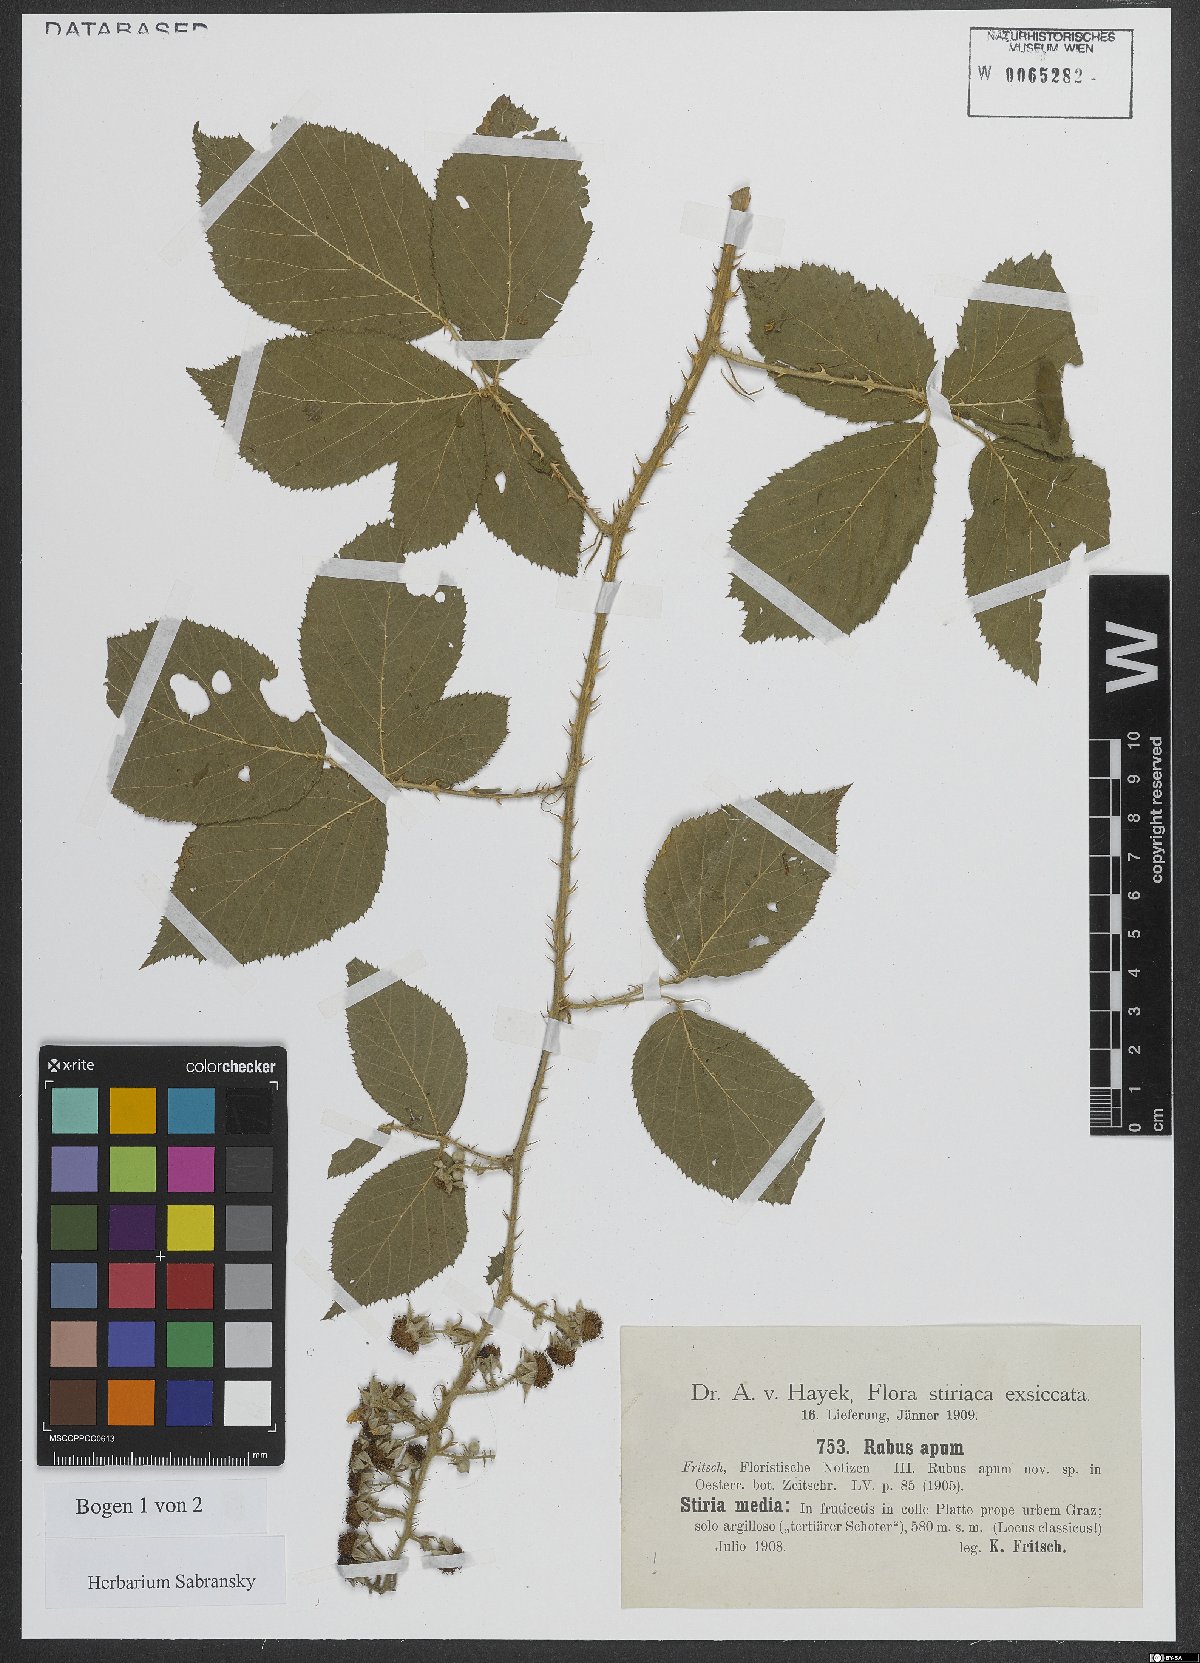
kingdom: Plantae
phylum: Tracheophyta
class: Magnoliopsida
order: Rosales
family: Rosaceae
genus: Rubus
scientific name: Rubus ferox
